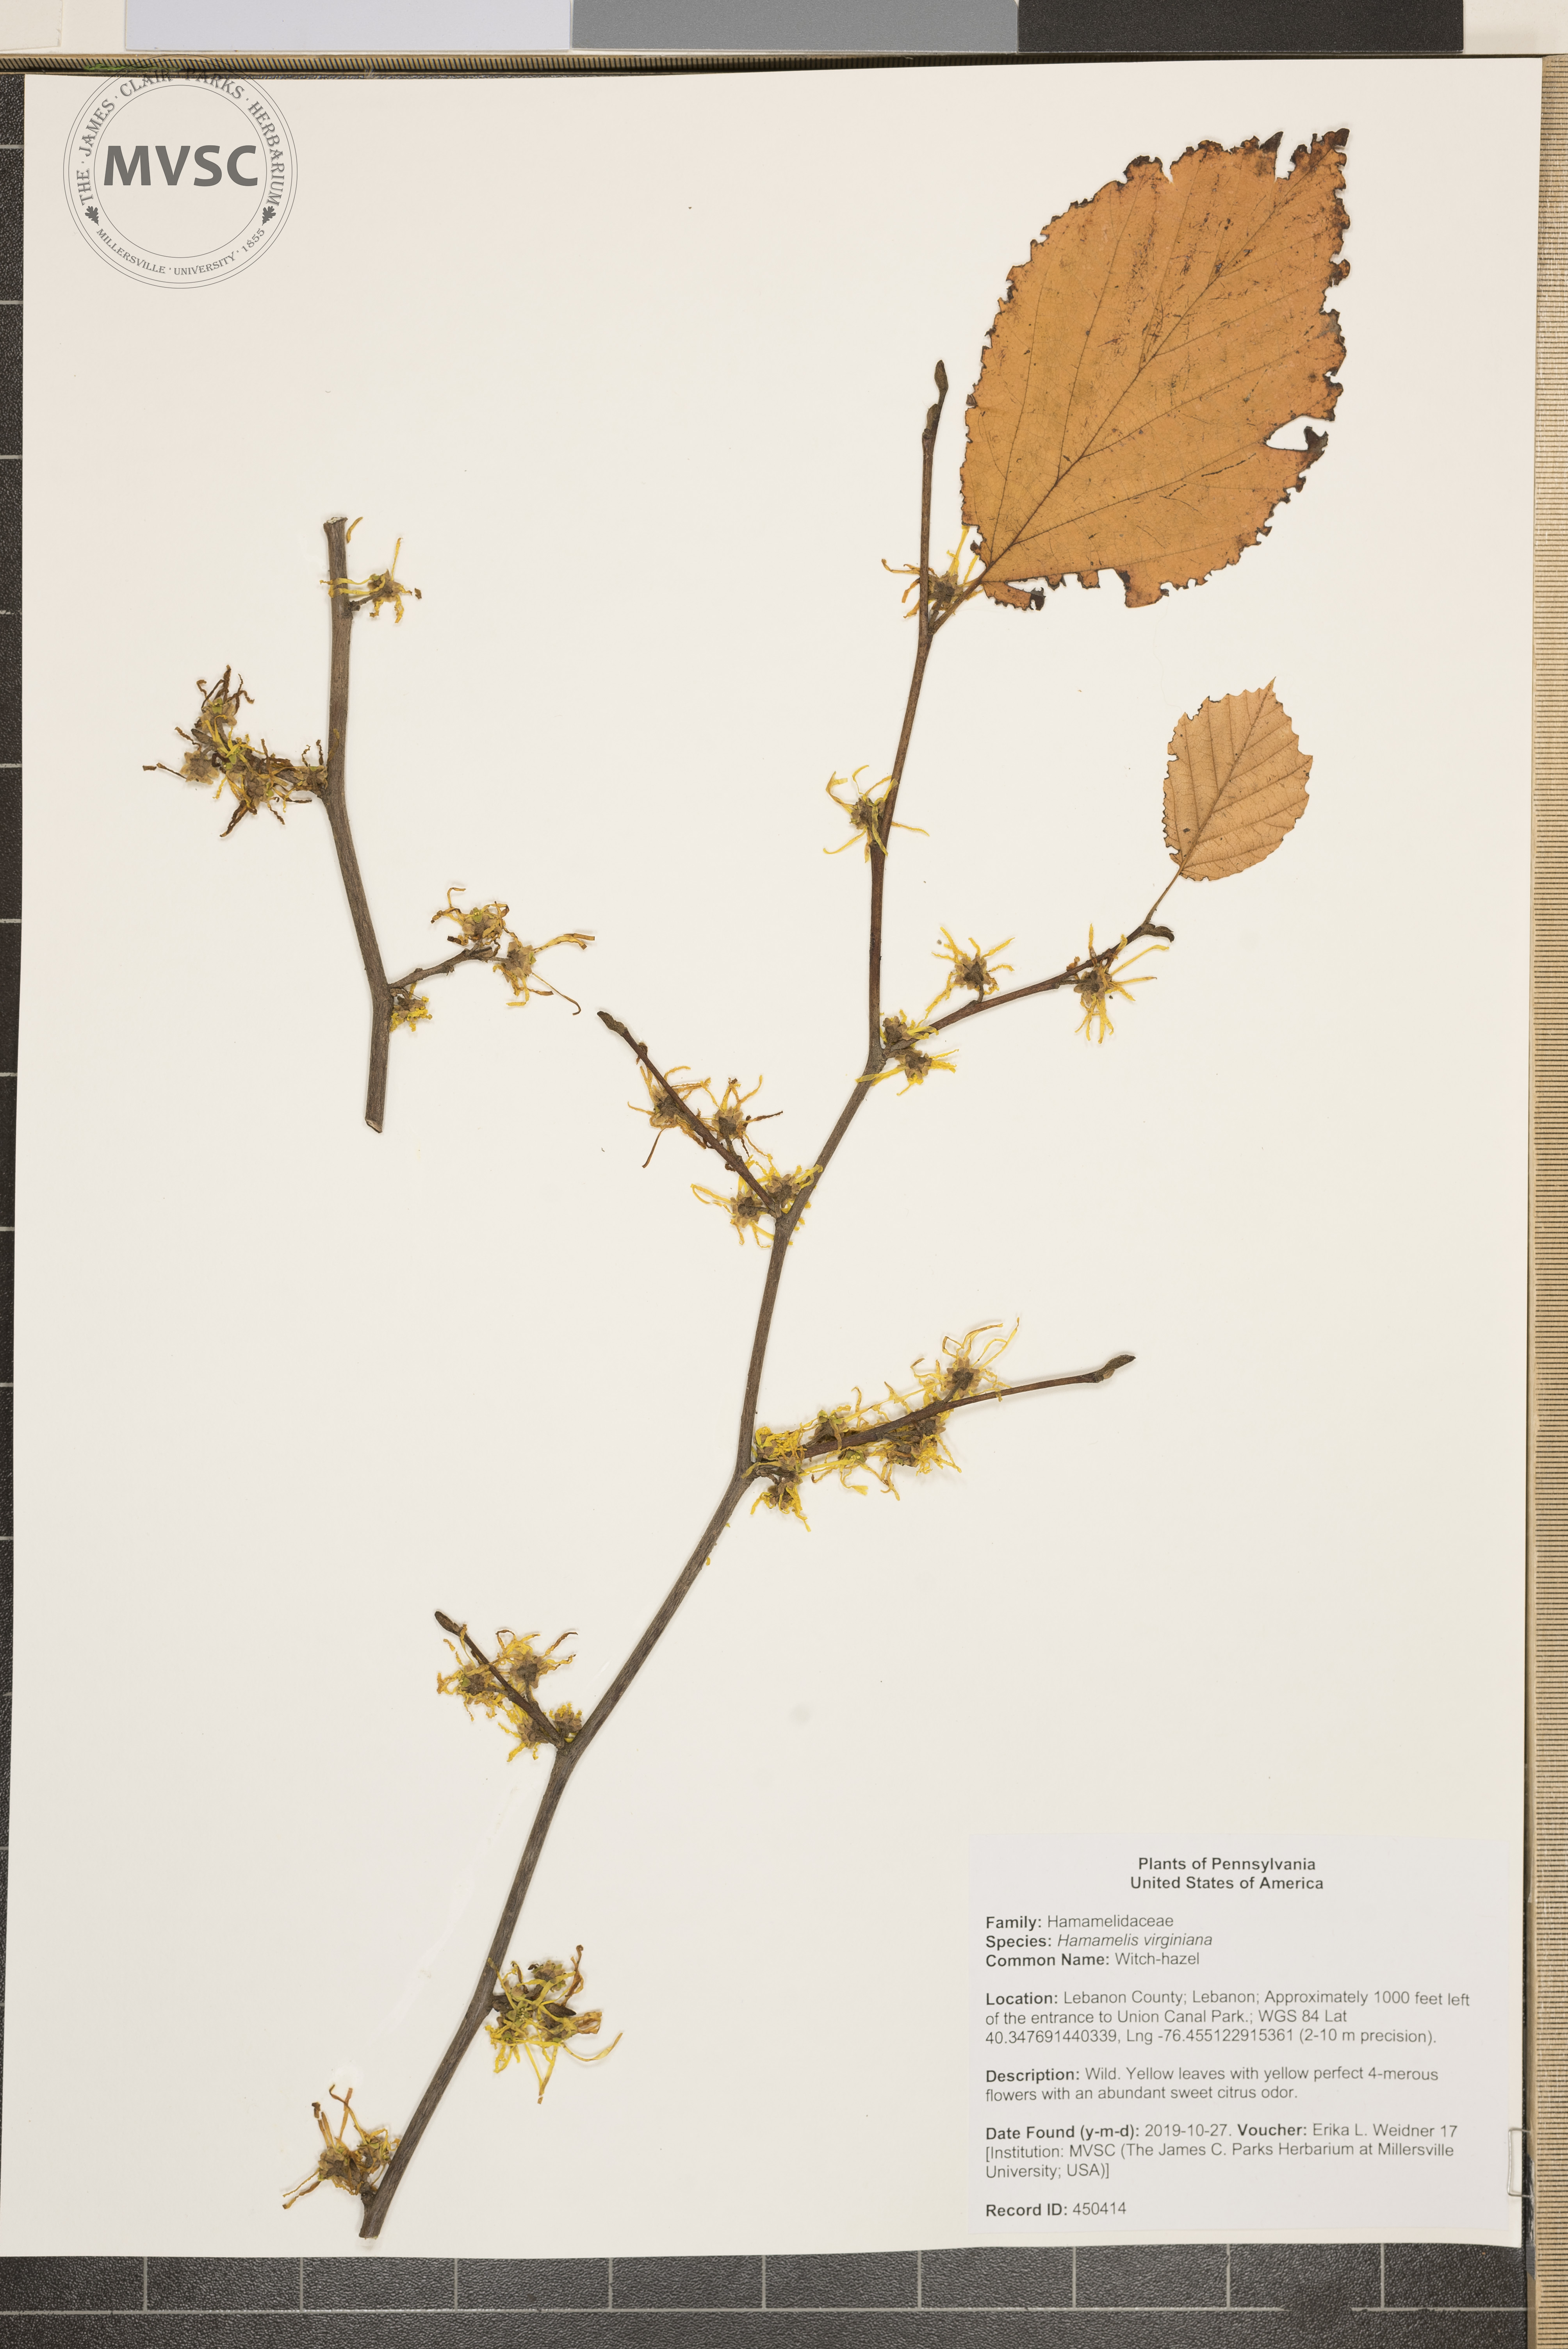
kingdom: Plantae
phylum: Tracheophyta
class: Magnoliopsida
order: Saxifragales
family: Hamamelidaceae
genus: Hamamelis
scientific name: Hamamelis virginiana
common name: Witch-hazel
